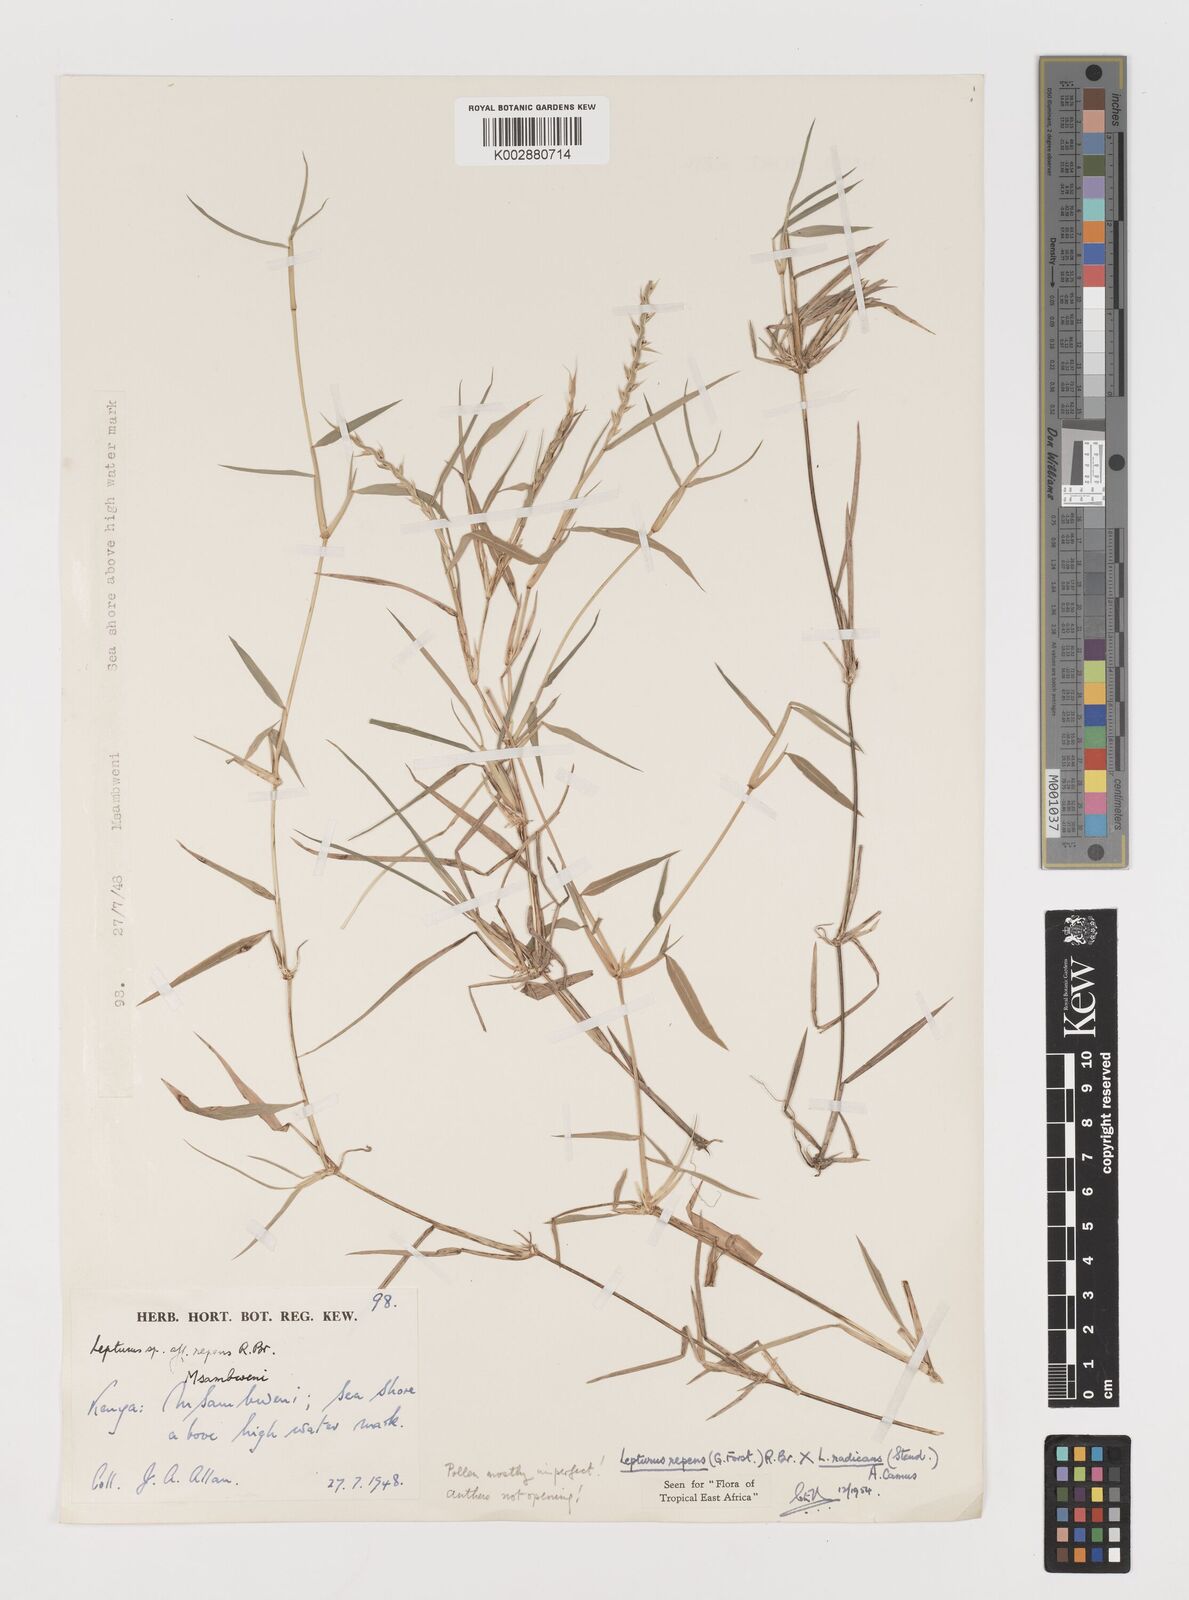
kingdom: Plantae
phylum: Tracheophyta
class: Liliopsida
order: Poales
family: Poaceae
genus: Lepturus
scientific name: Lepturus repens
